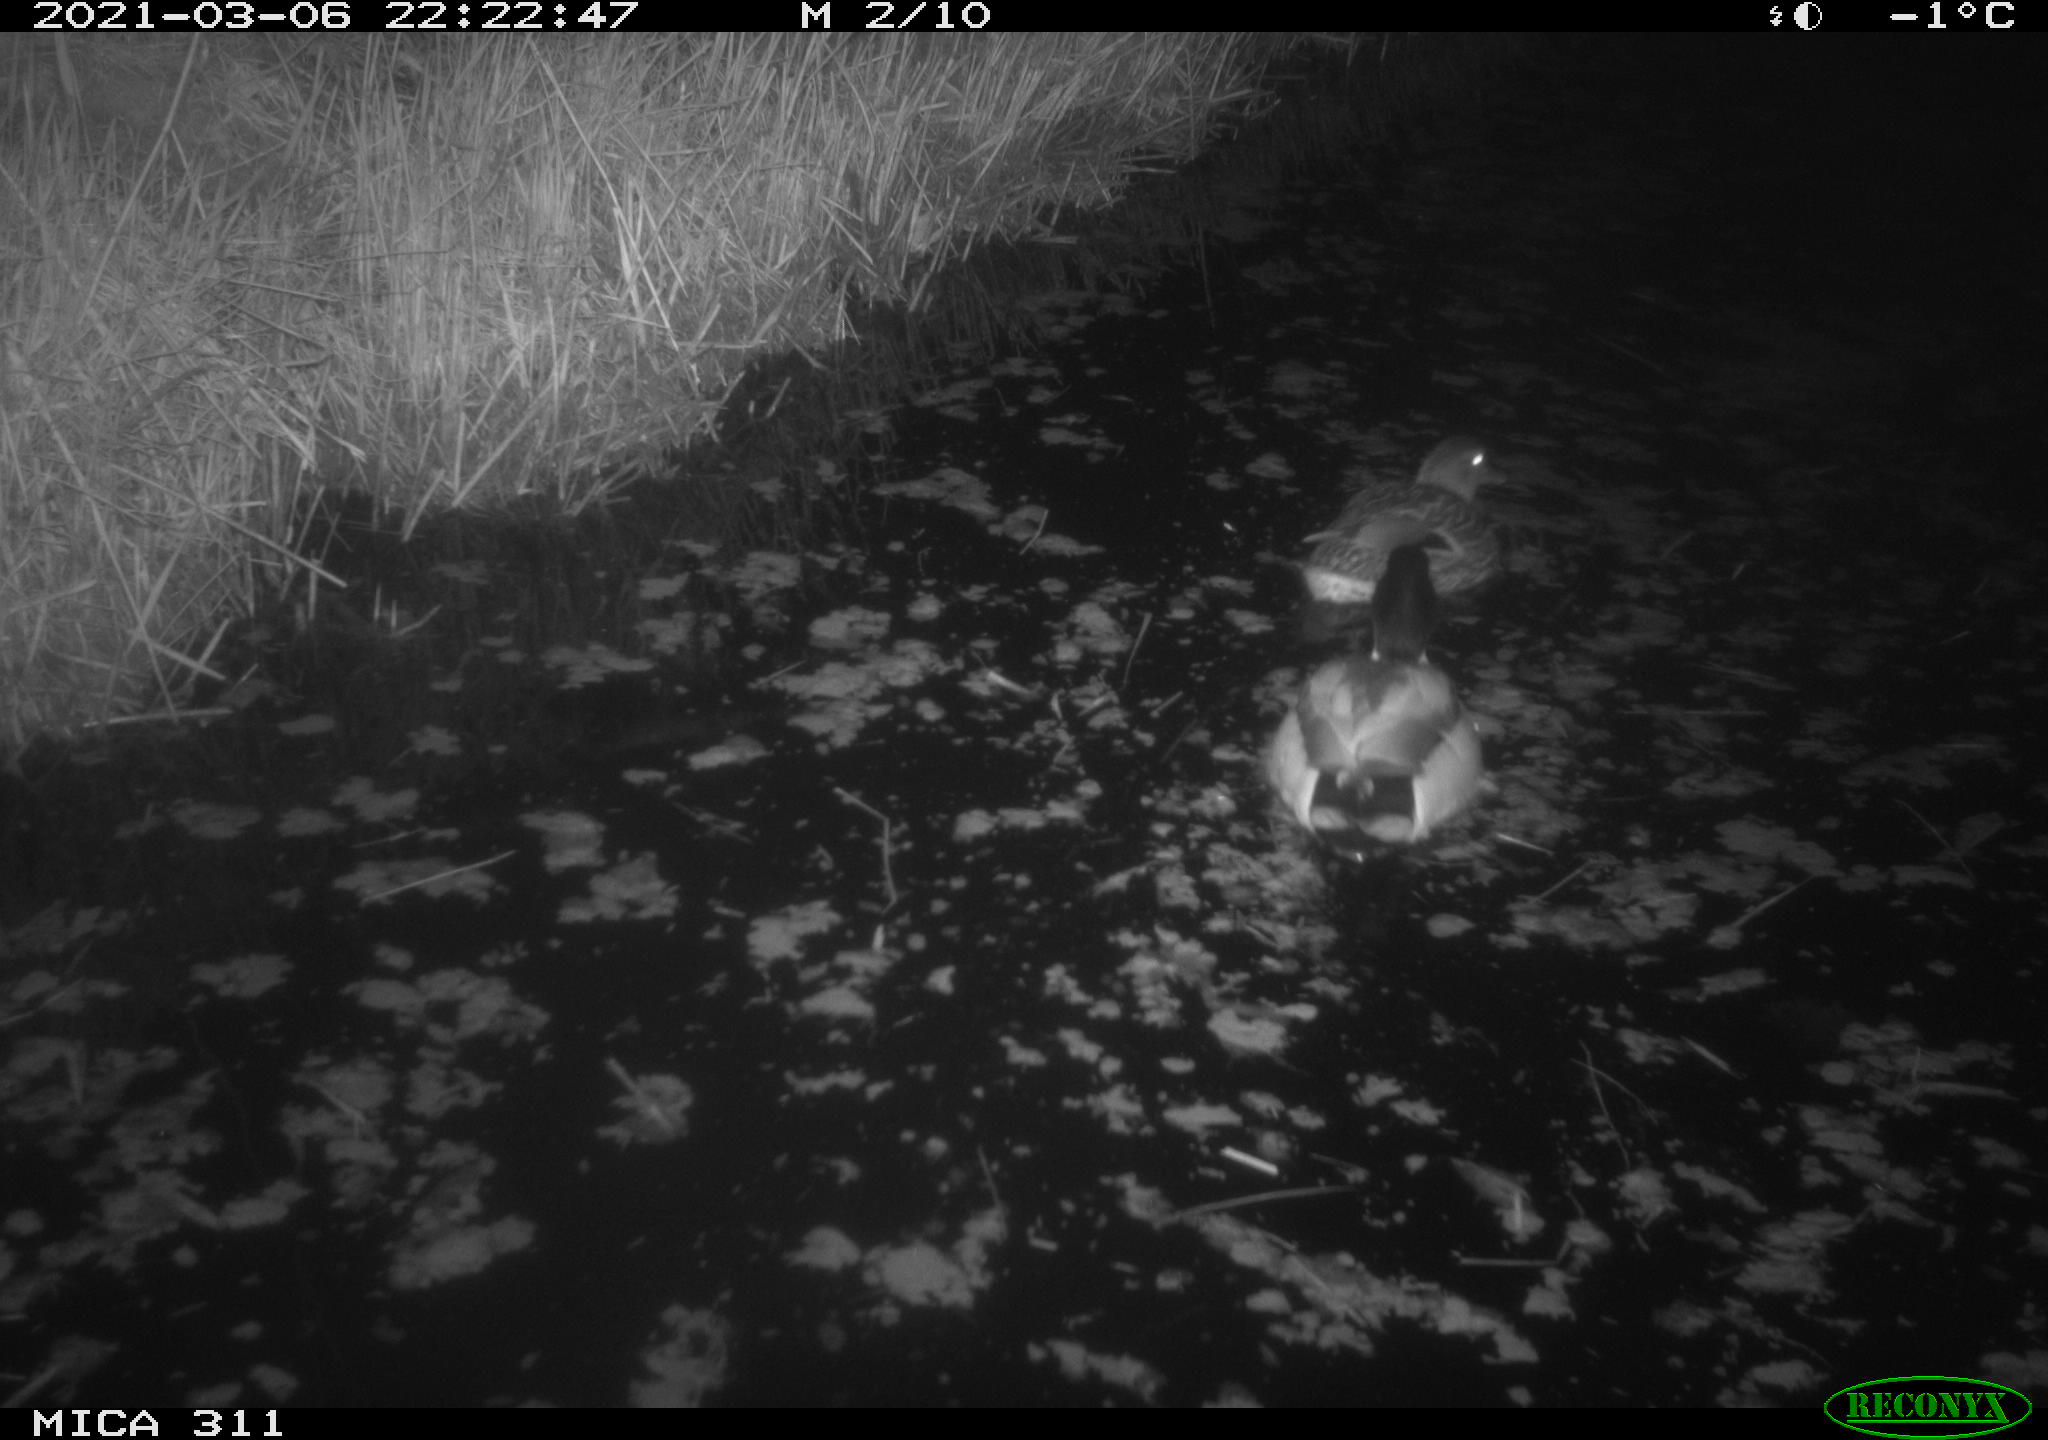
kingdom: Animalia
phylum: Chordata
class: Aves
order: Anseriformes
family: Anatidae
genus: Anas
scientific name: Anas platyrhynchos
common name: Mallard
